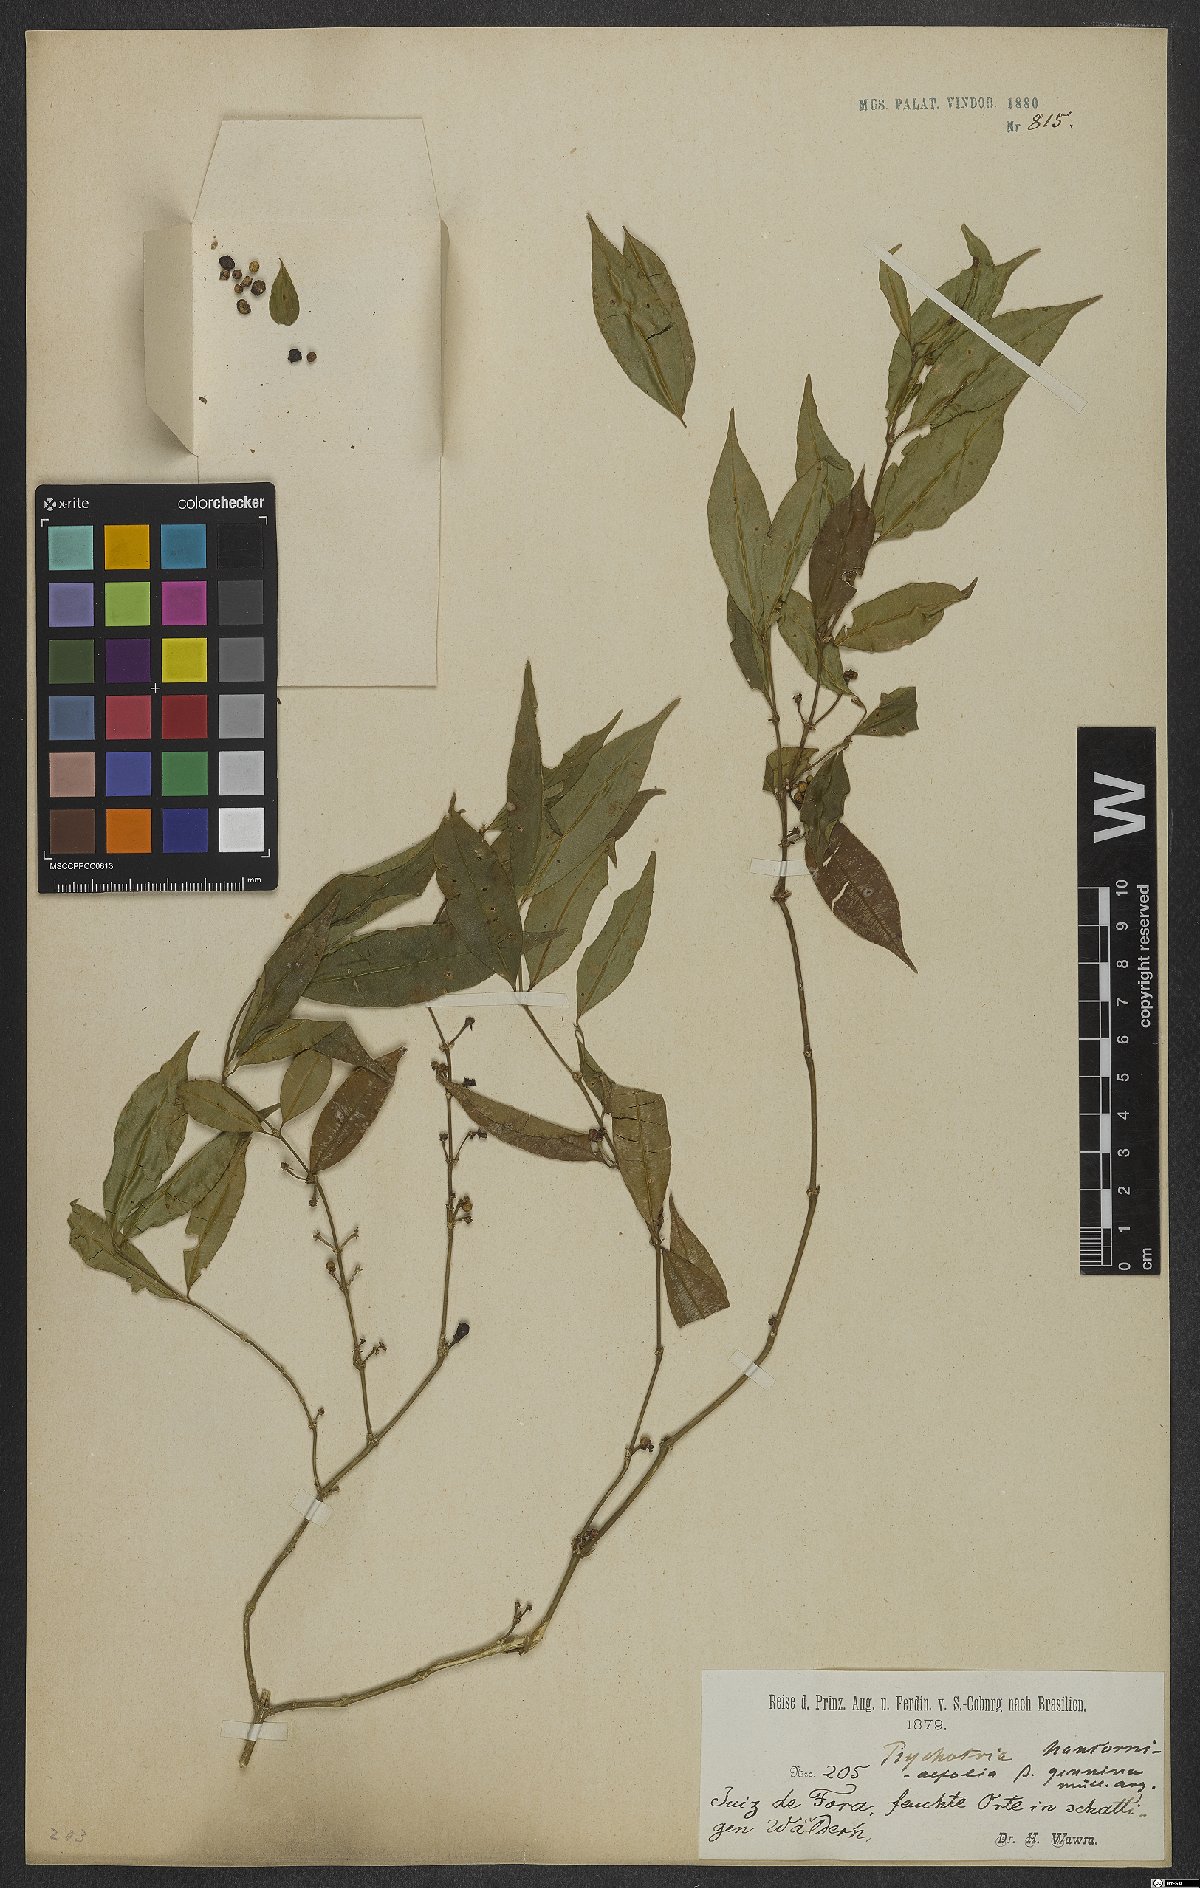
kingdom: Plantae
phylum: Tracheophyta
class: Magnoliopsida
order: Gentianales
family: Rubiaceae
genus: Palicourea
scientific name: Palicourea sessilis
